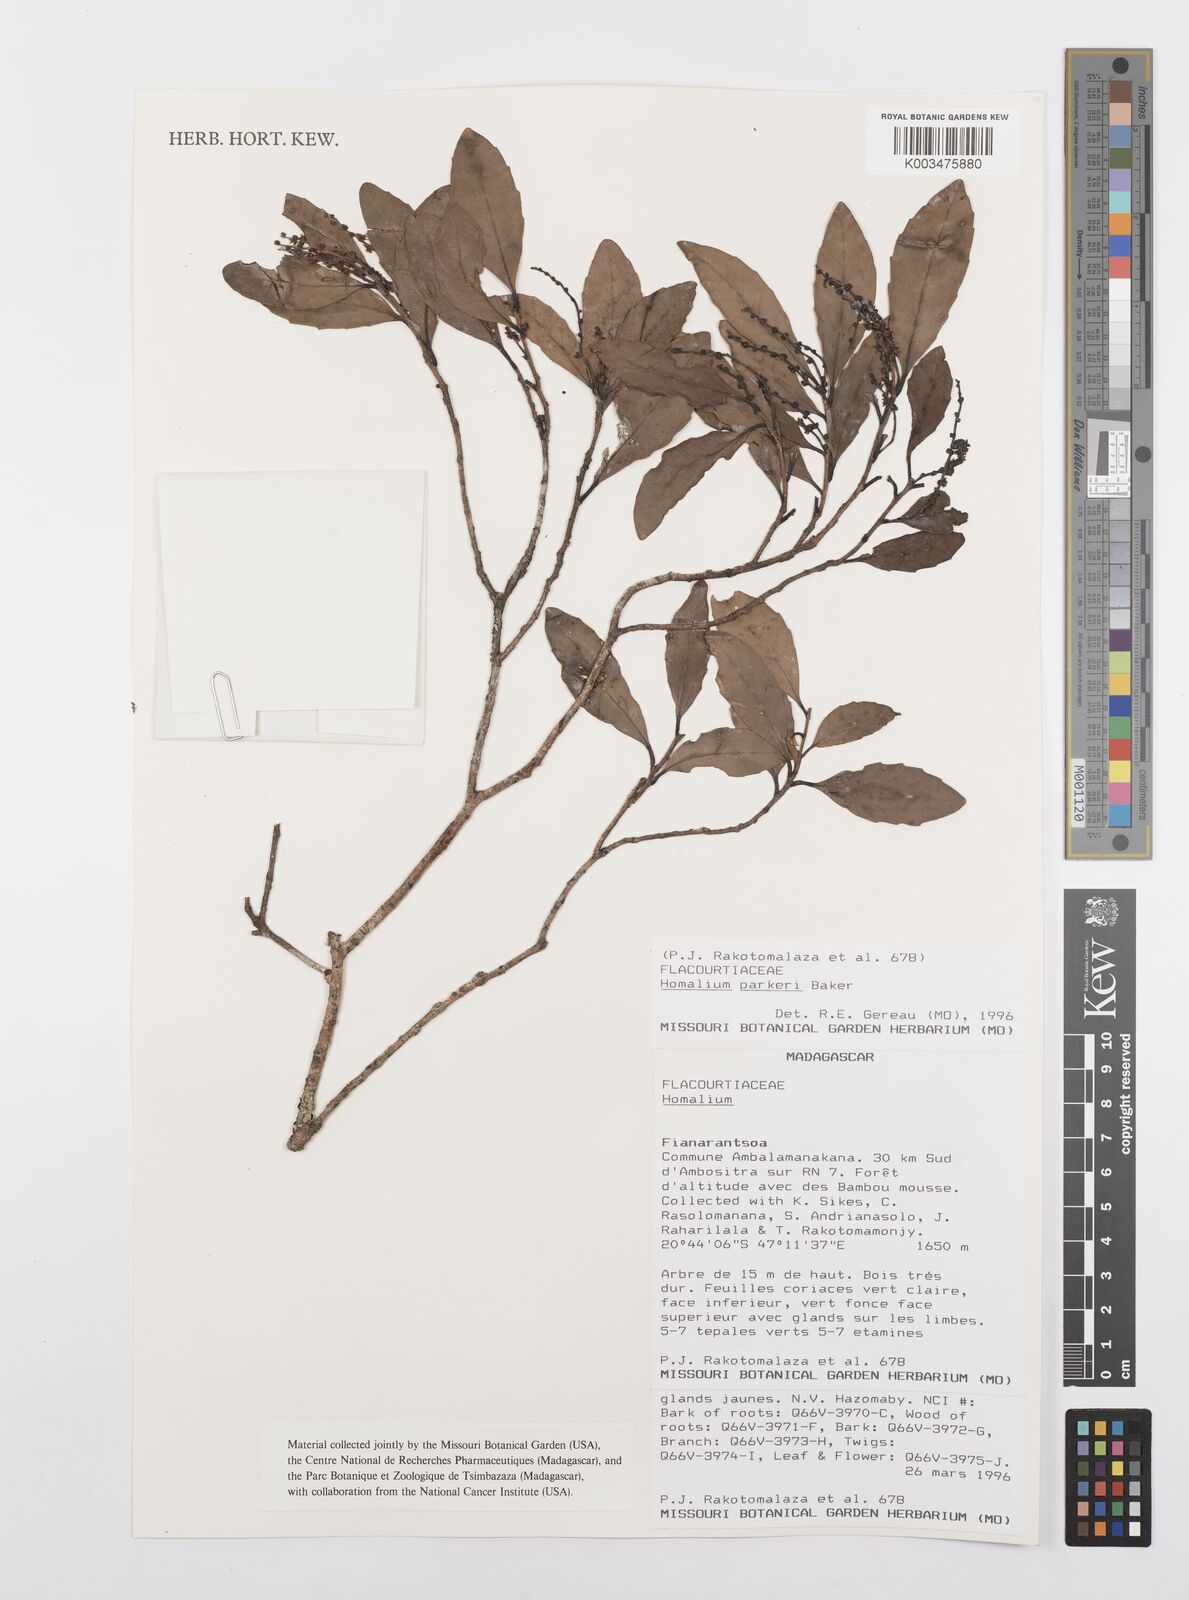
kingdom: Plantae
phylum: Tracheophyta
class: Magnoliopsida
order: Malpighiales
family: Salicaceae
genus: Homalium
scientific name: Homalium parkeri
